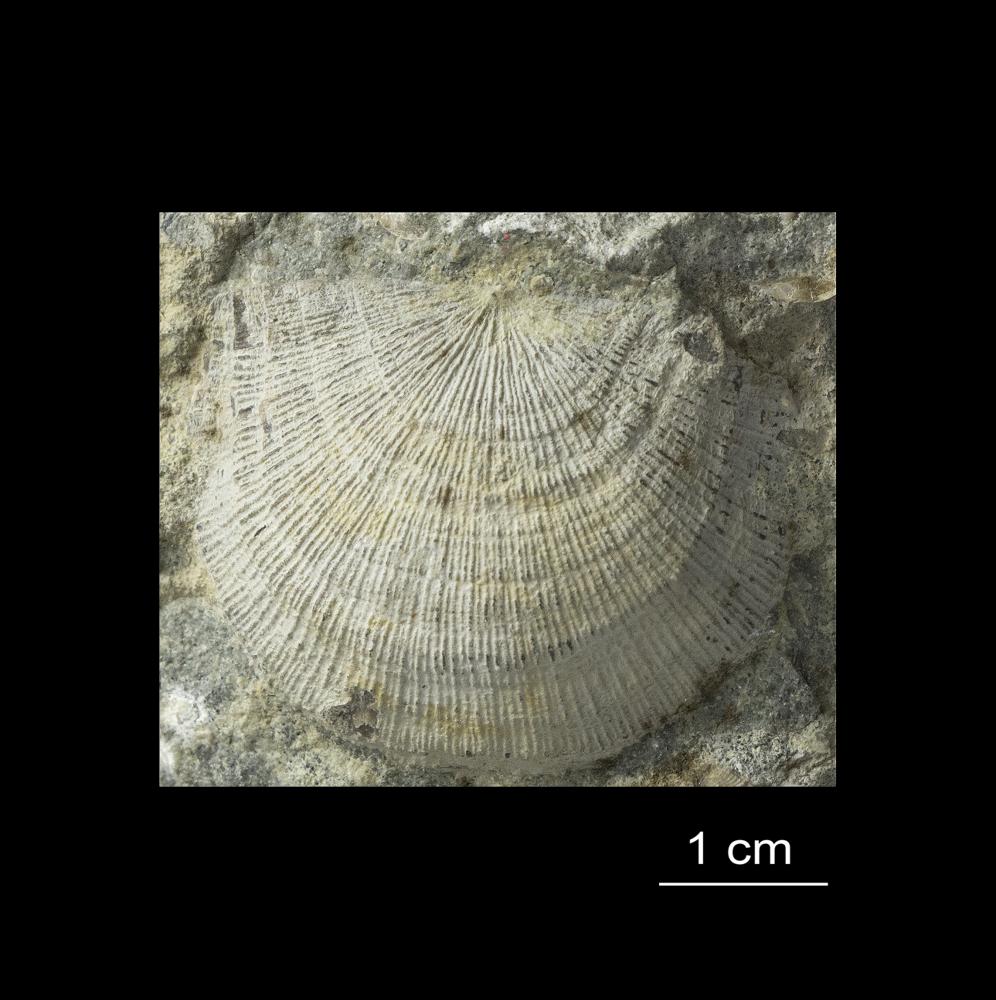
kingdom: Animalia
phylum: Brachiopoda
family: Gonambonitidae
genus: Antigonambonites
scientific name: Antigonambonites aequistriatus
